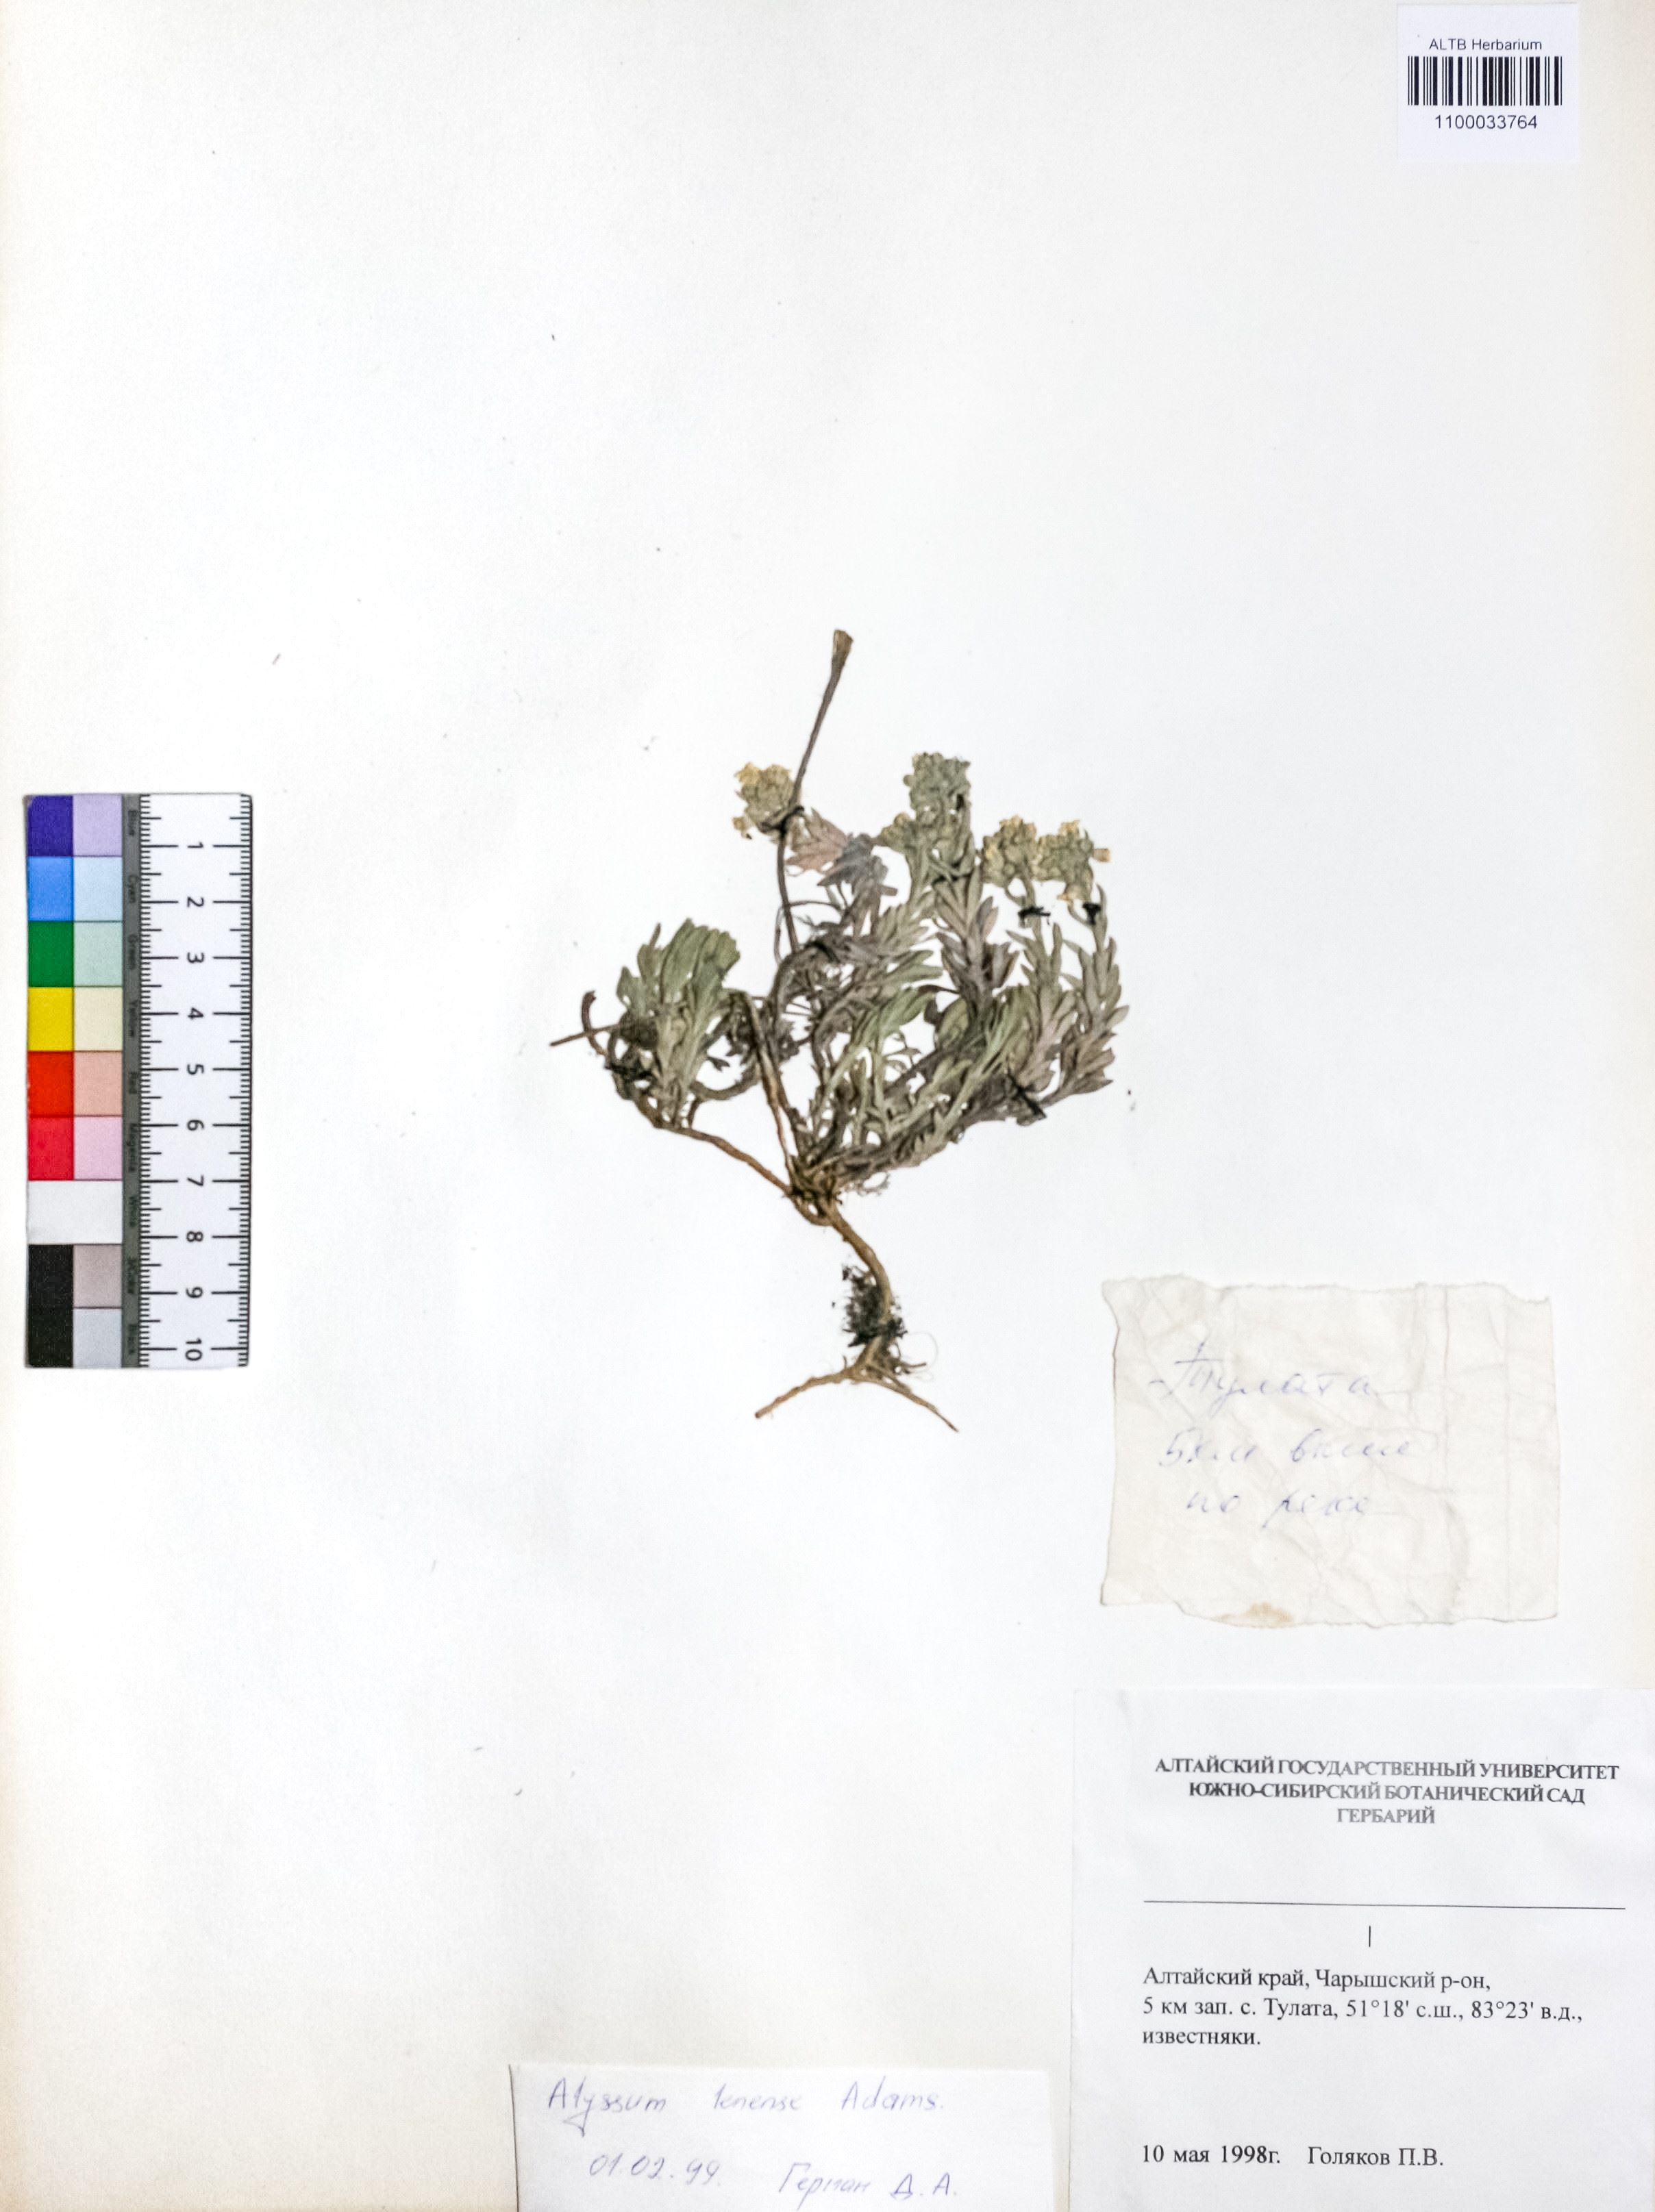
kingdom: Plantae
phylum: Tracheophyta
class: Magnoliopsida
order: Brassicales
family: Brassicaceae
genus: Alyssum
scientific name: Alyssum lenense
